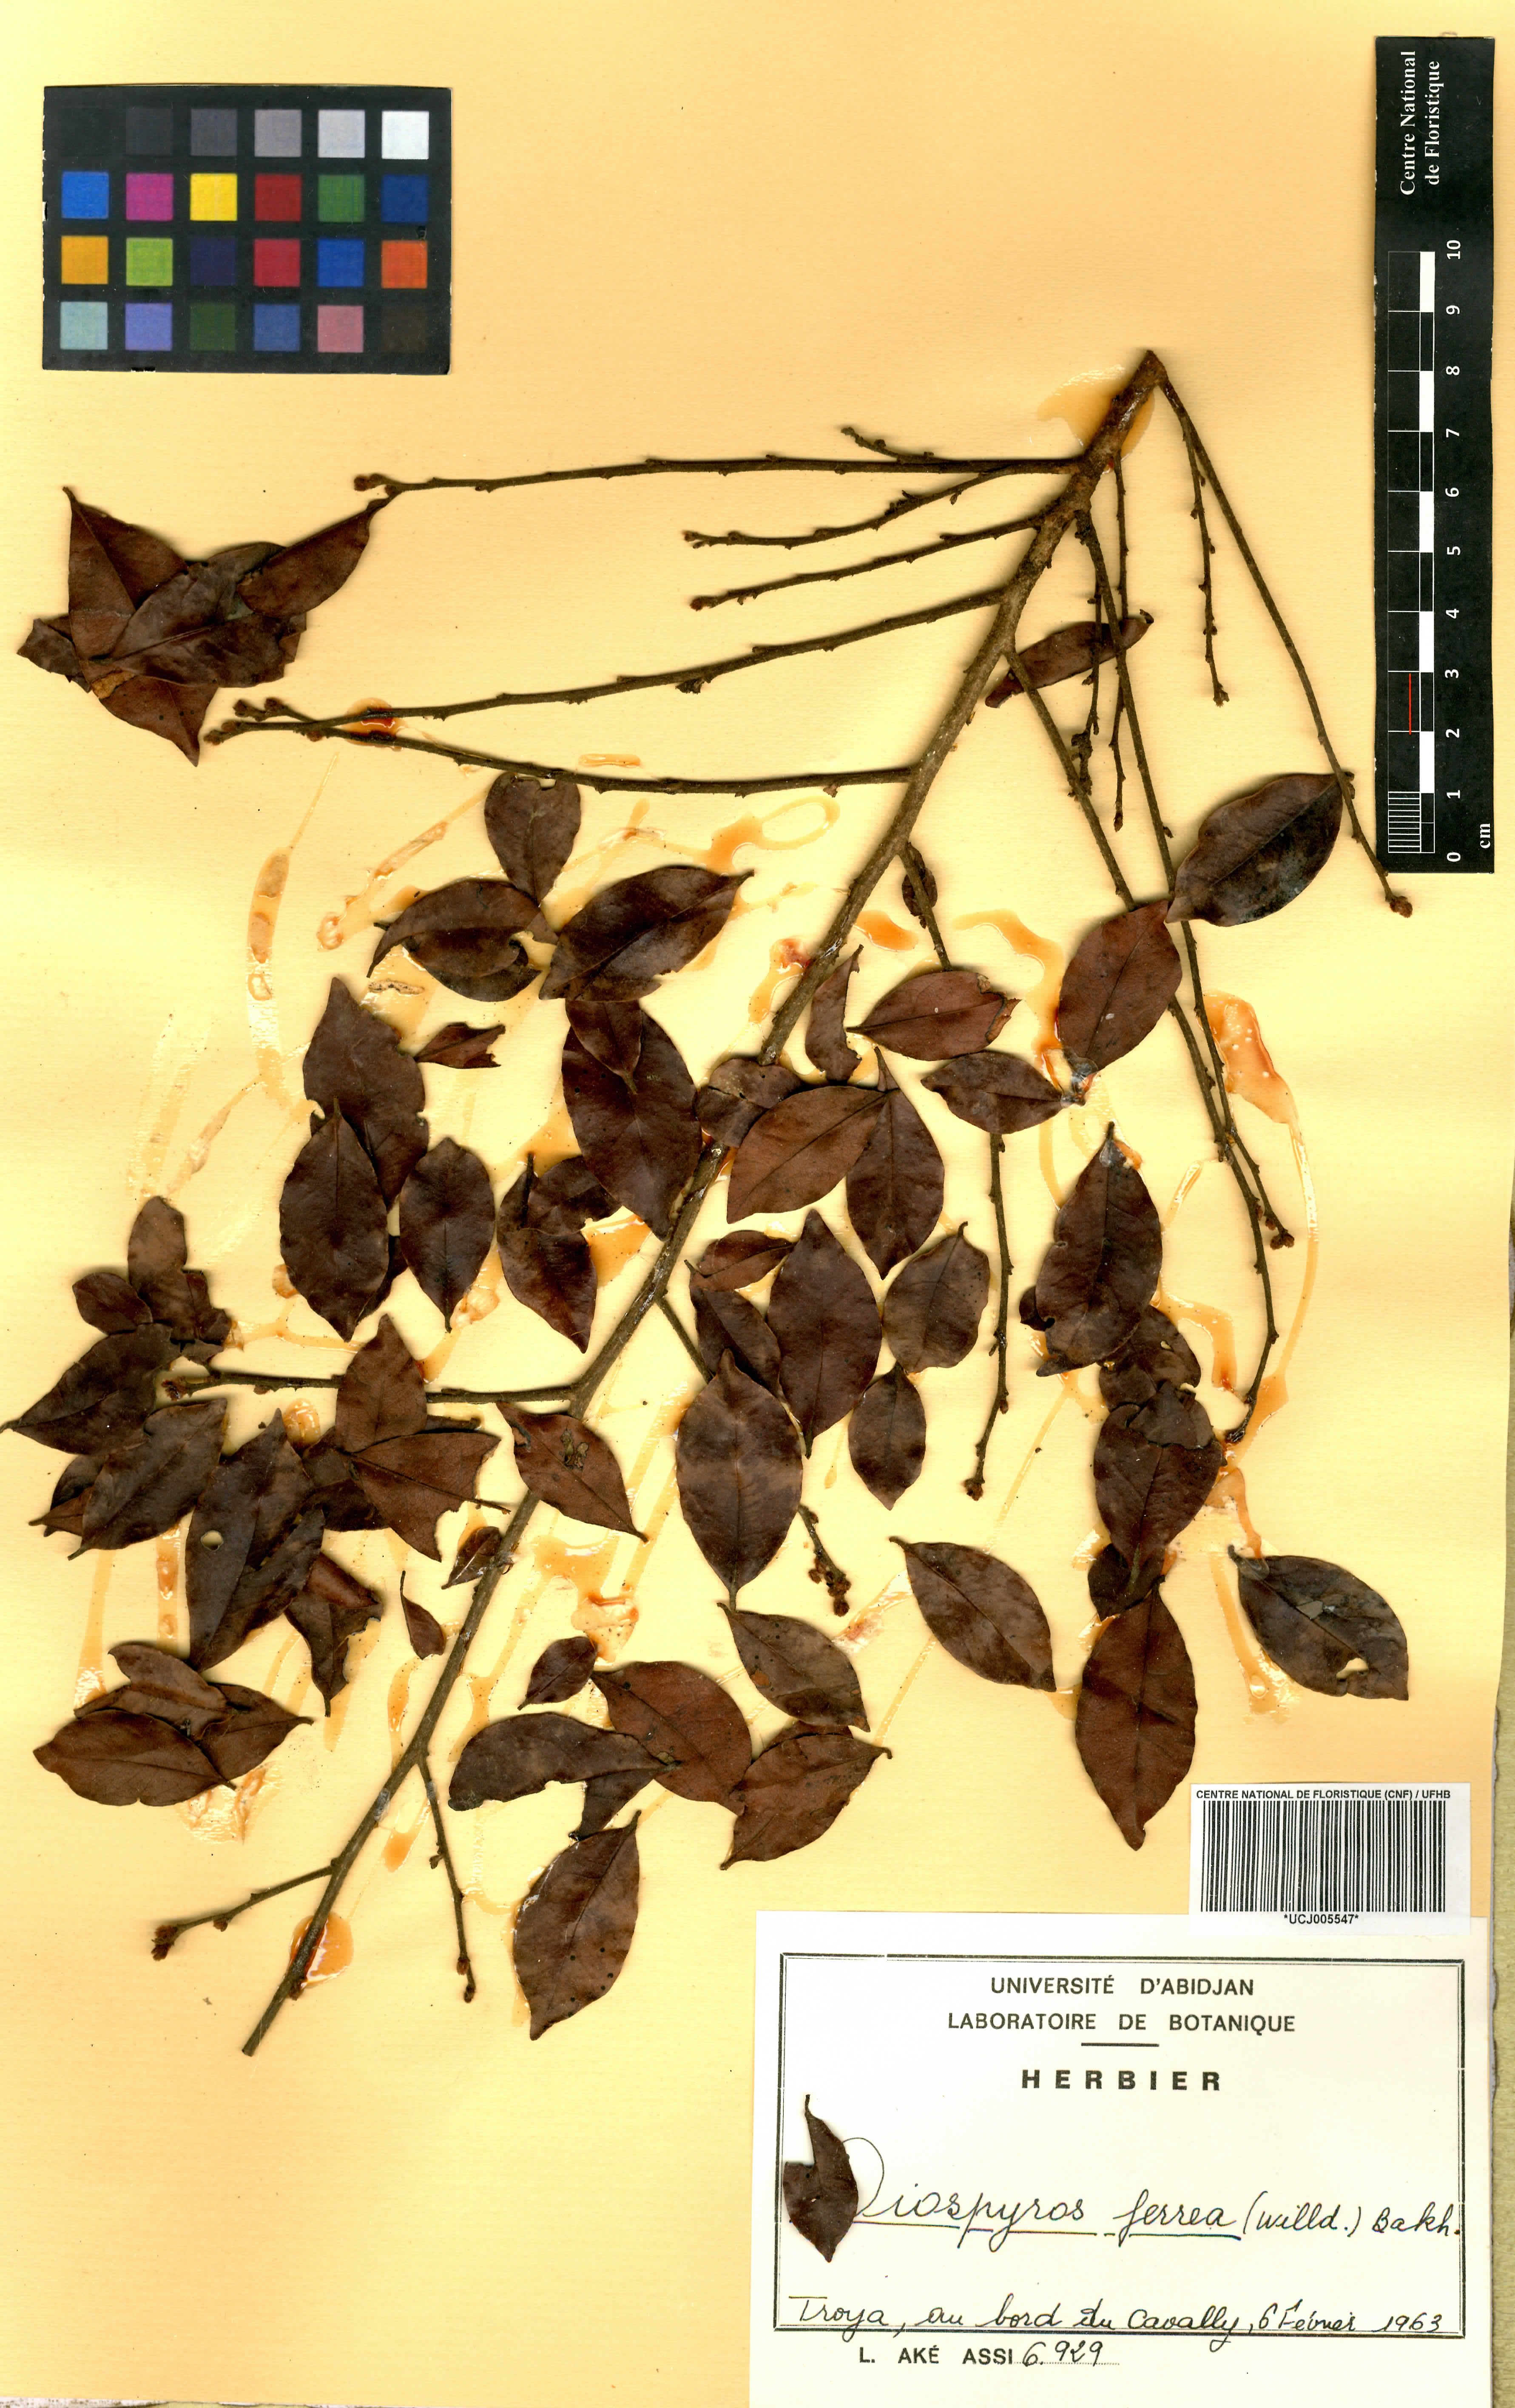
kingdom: Plantae
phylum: Tracheophyta
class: Magnoliopsida
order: Ericales
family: Ebenaceae
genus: Diospyros
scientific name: Diospyros ferrea
